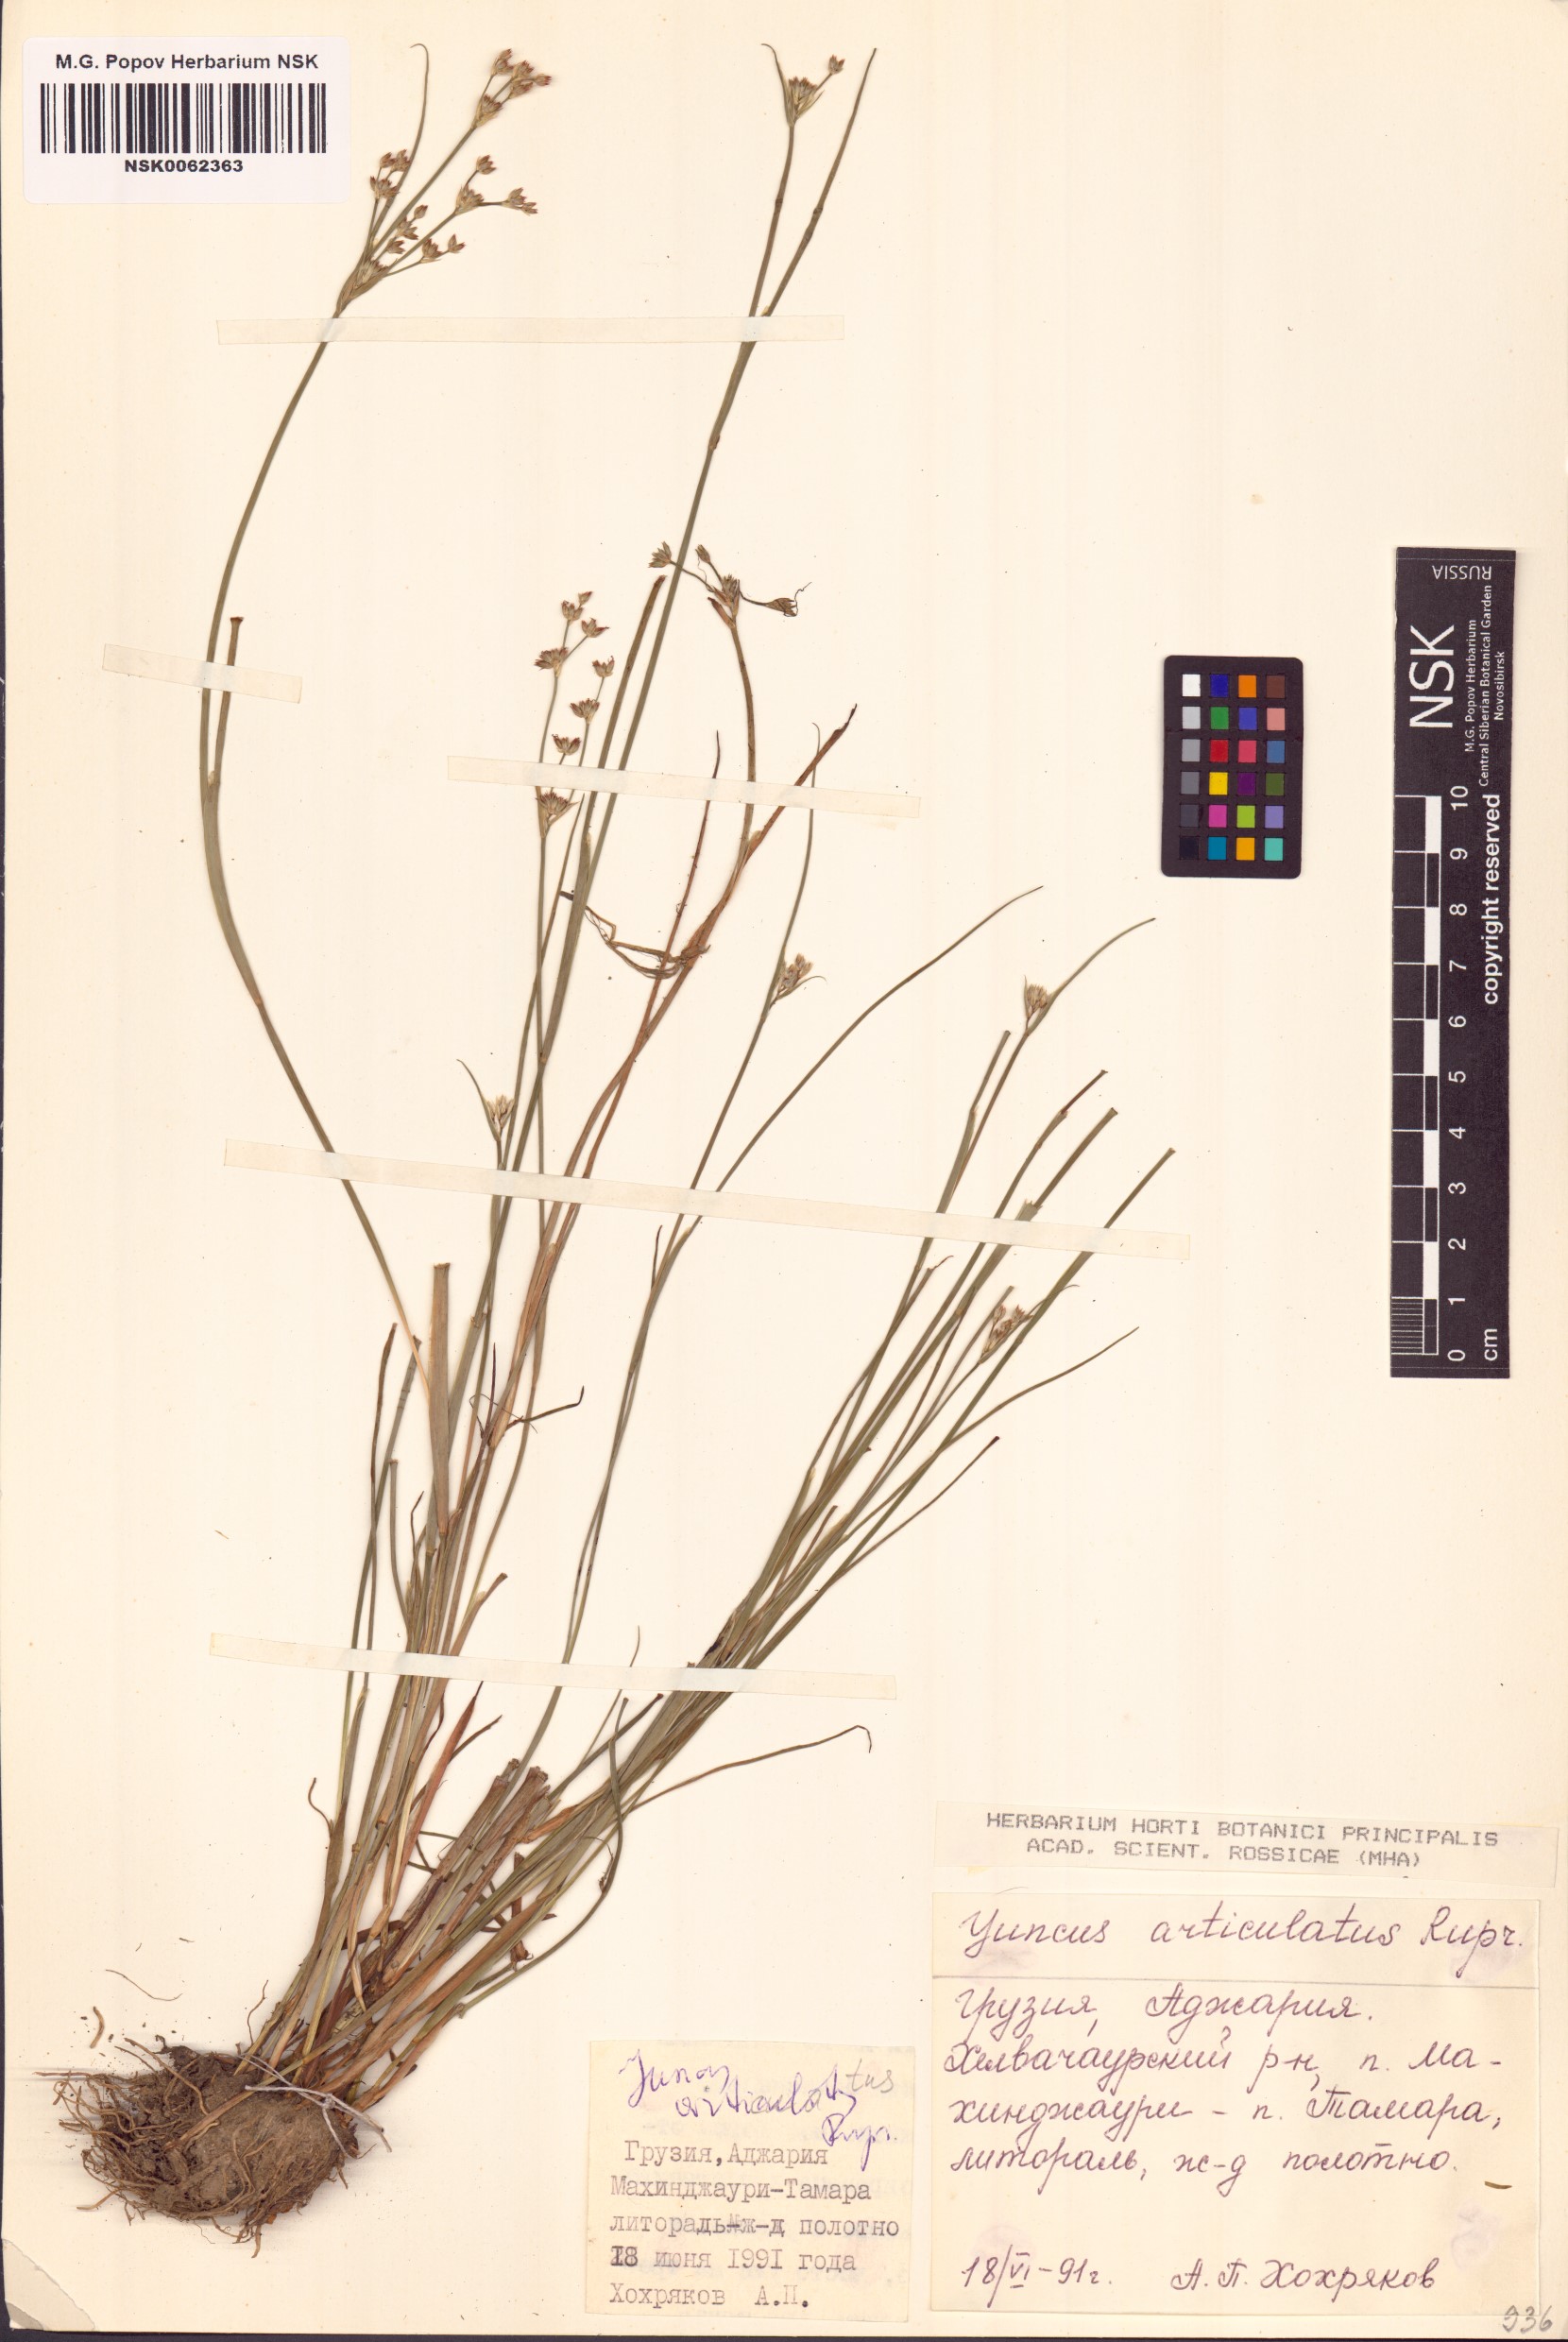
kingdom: Plantae
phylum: Tracheophyta
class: Liliopsida
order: Poales
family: Juncaceae
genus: Juncus
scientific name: Juncus articulatus
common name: Jointed rush
